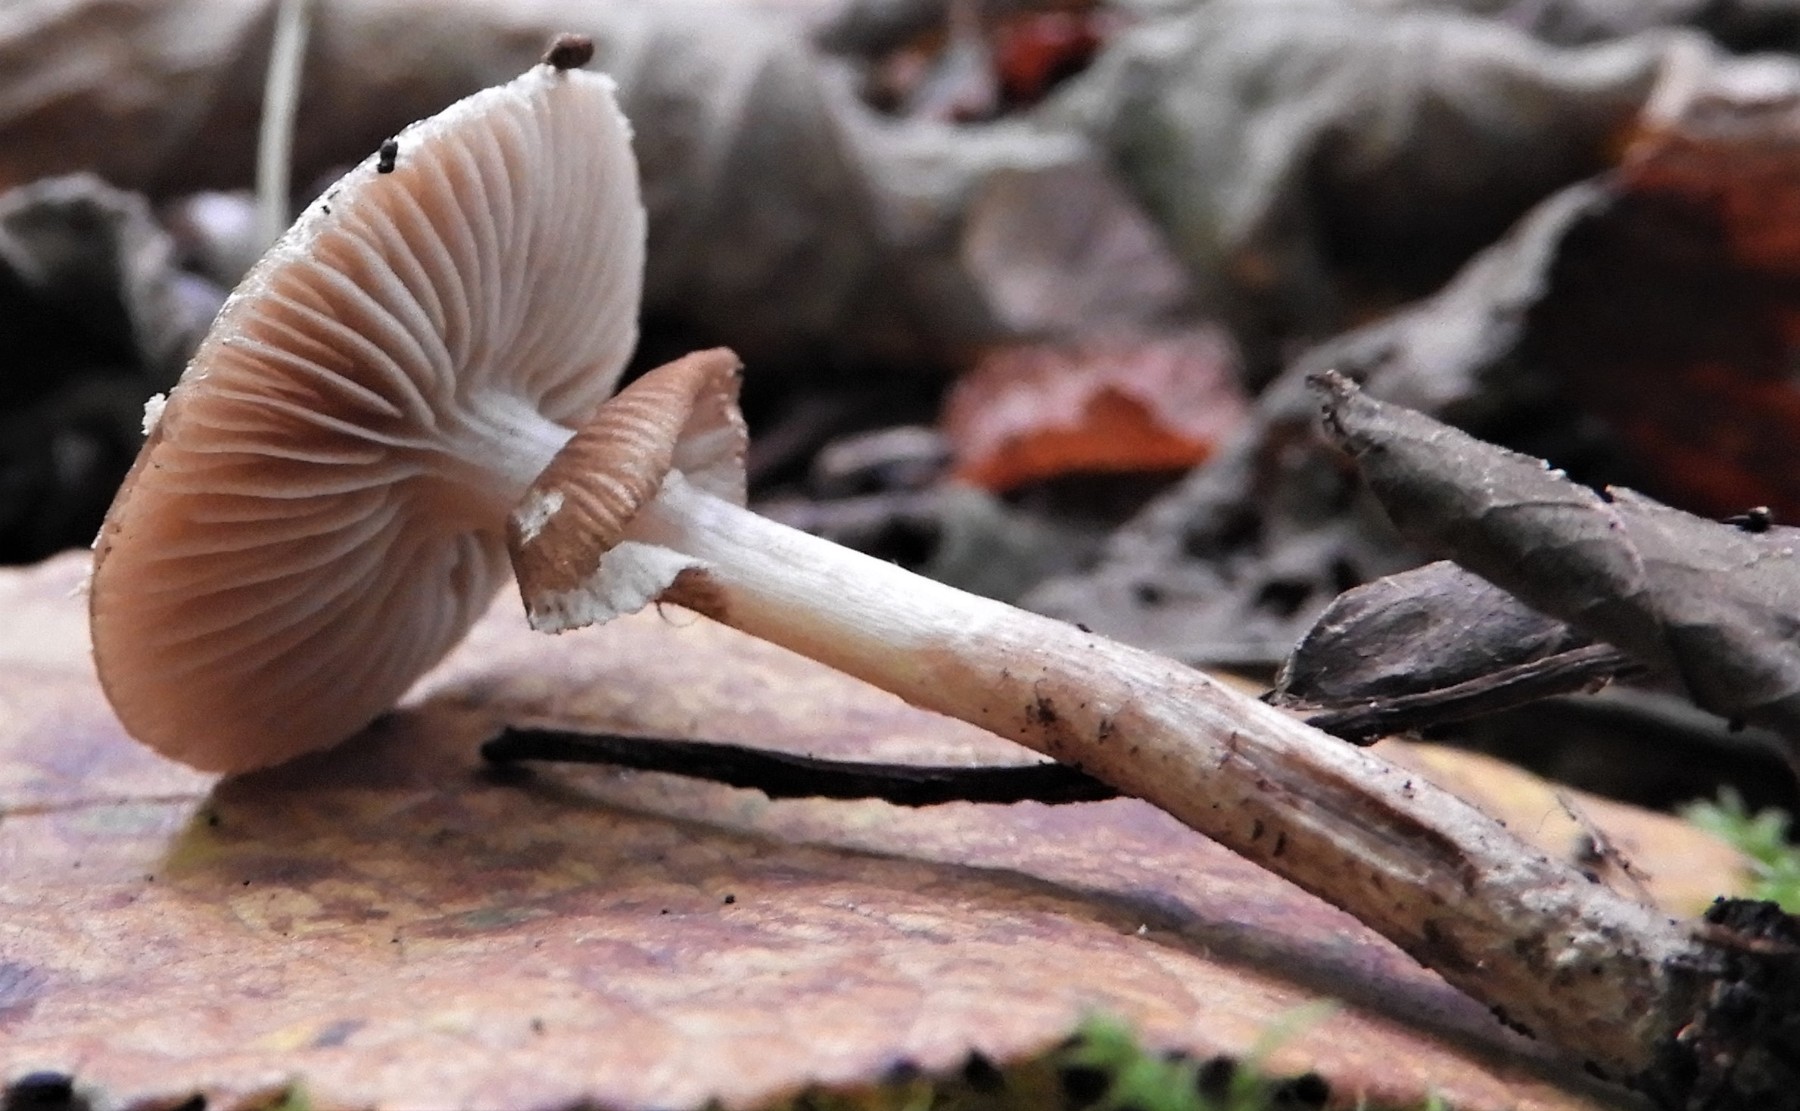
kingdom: Fungi
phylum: Basidiomycota
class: Agaricomycetes
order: Agaricales
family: Tubariaceae
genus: Cyclocybe
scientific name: Cyclocybe erebia
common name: mørk agerhat
